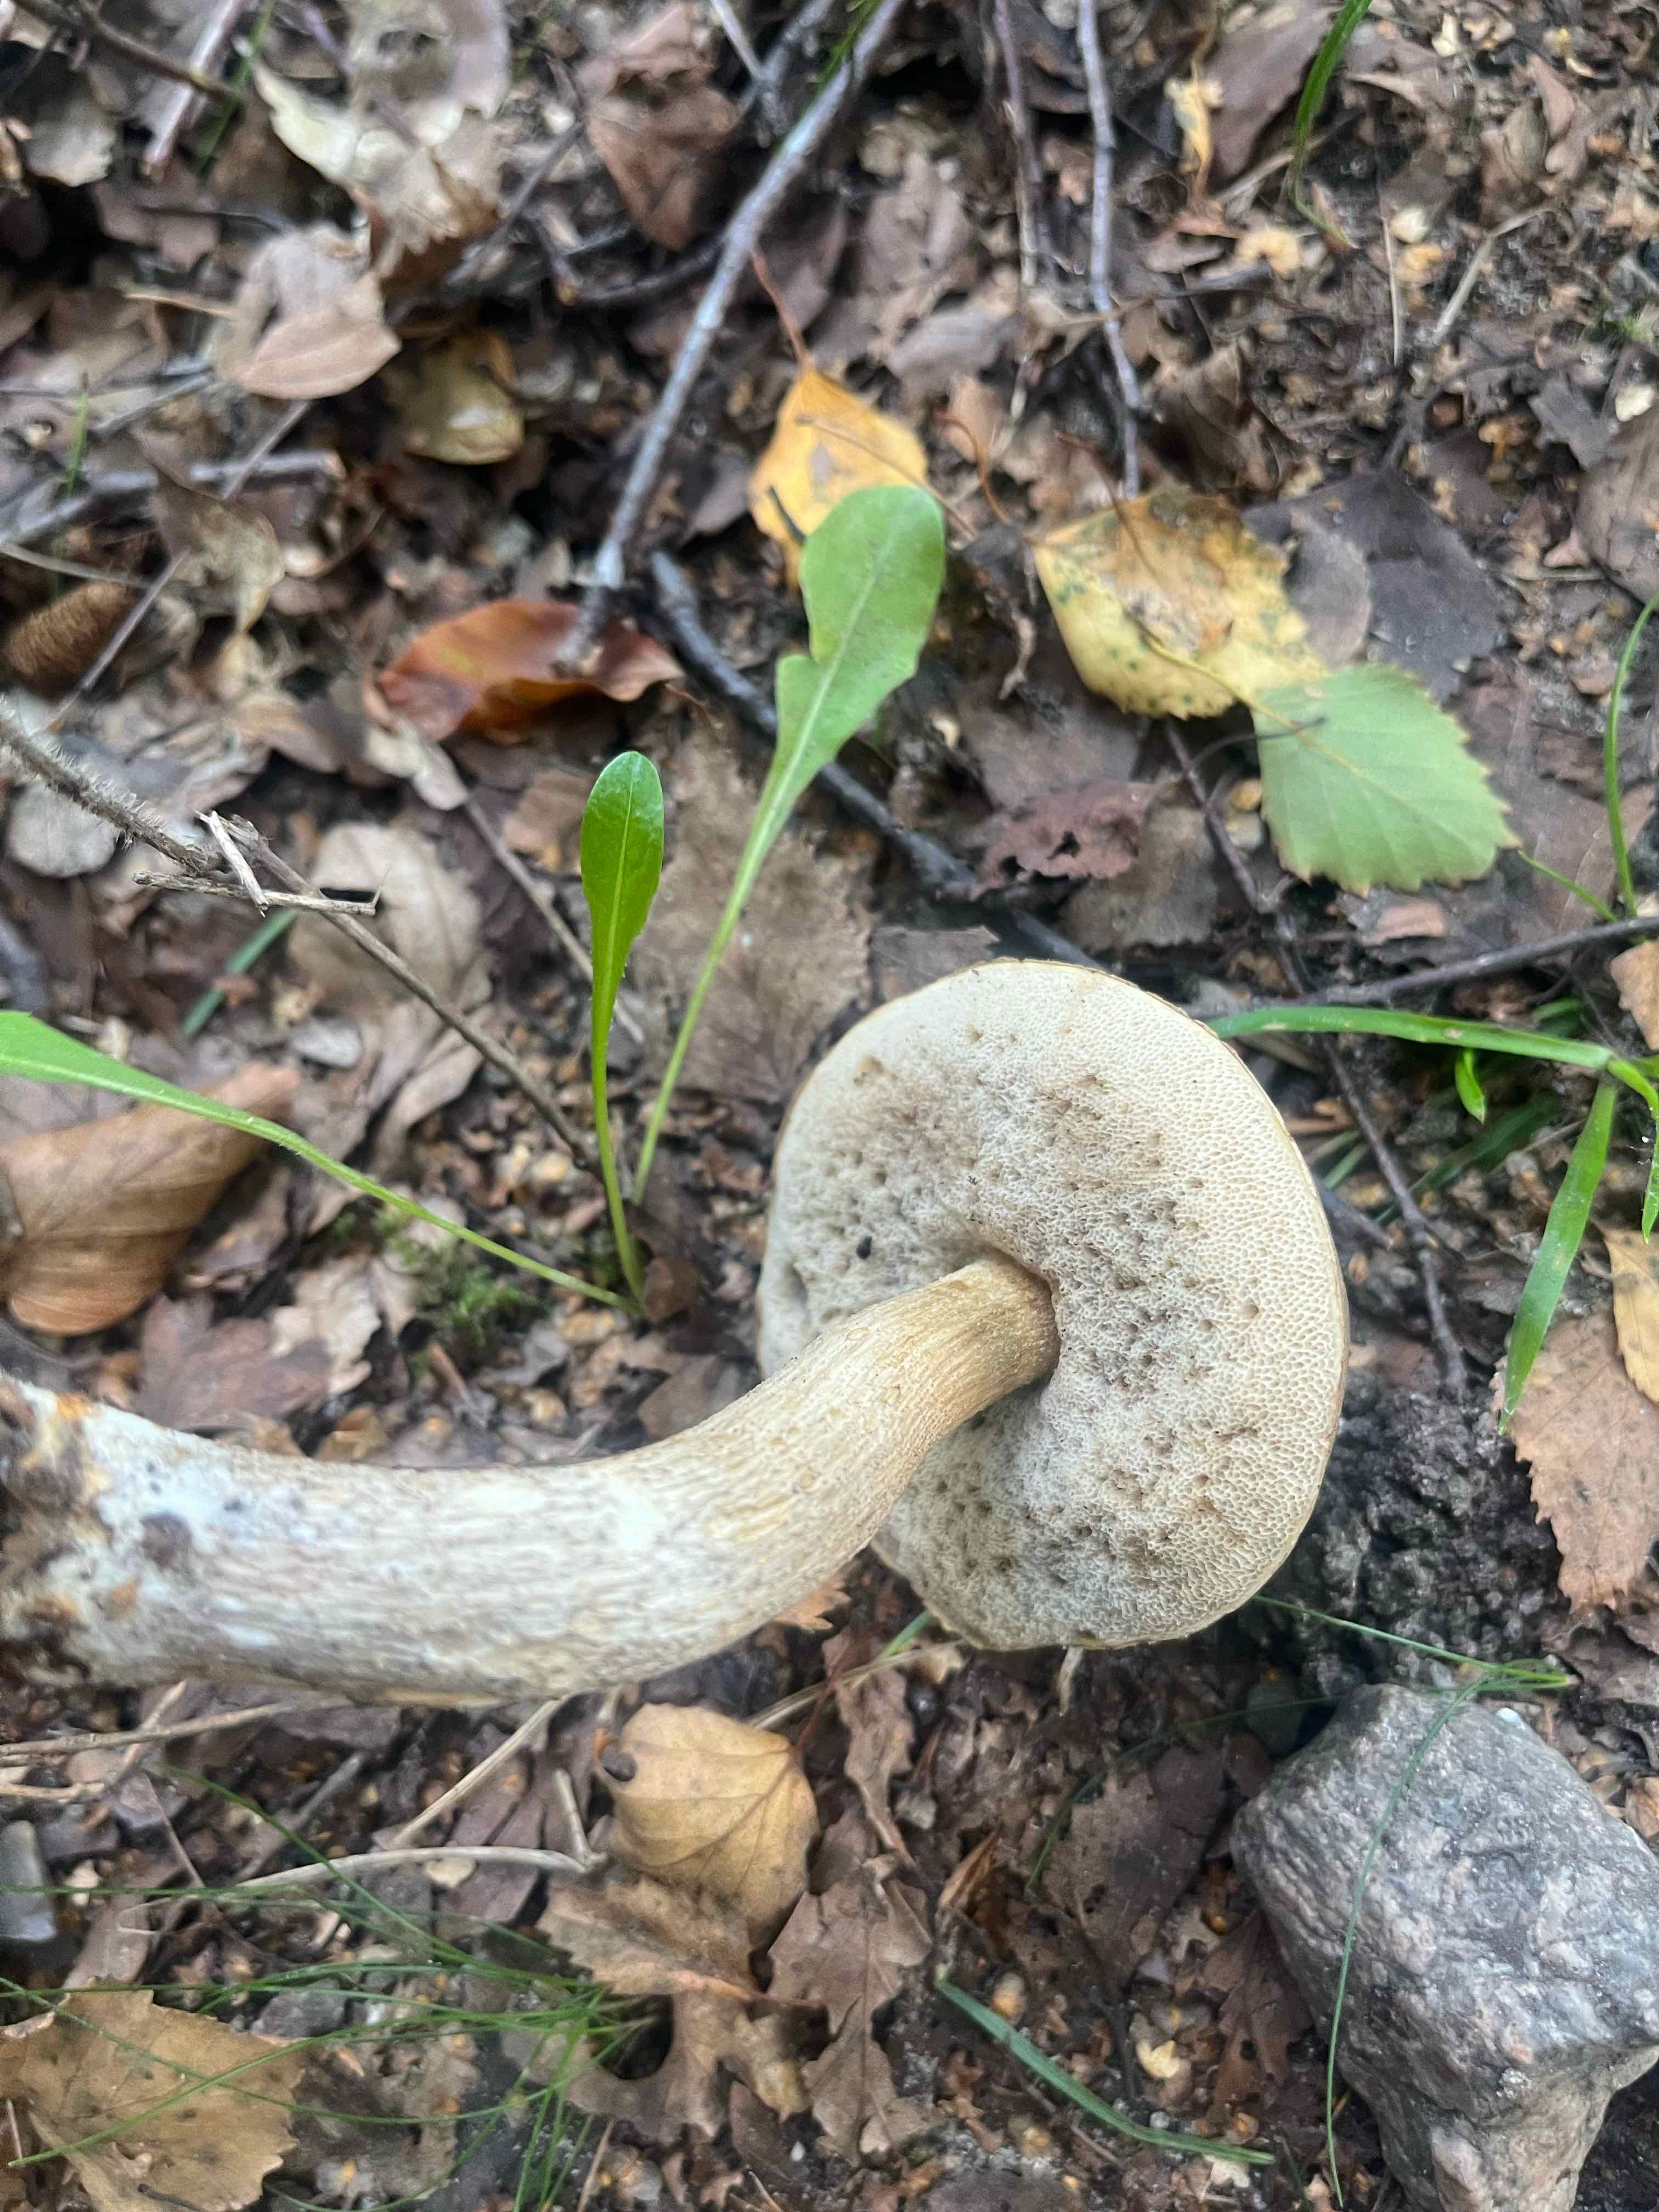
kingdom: Fungi
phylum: Basidiomycota
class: Agaricomycetes
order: Boletales
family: Boletaceae
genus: Leccinum
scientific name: Leccinum scabrum
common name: brun skælrørhat
